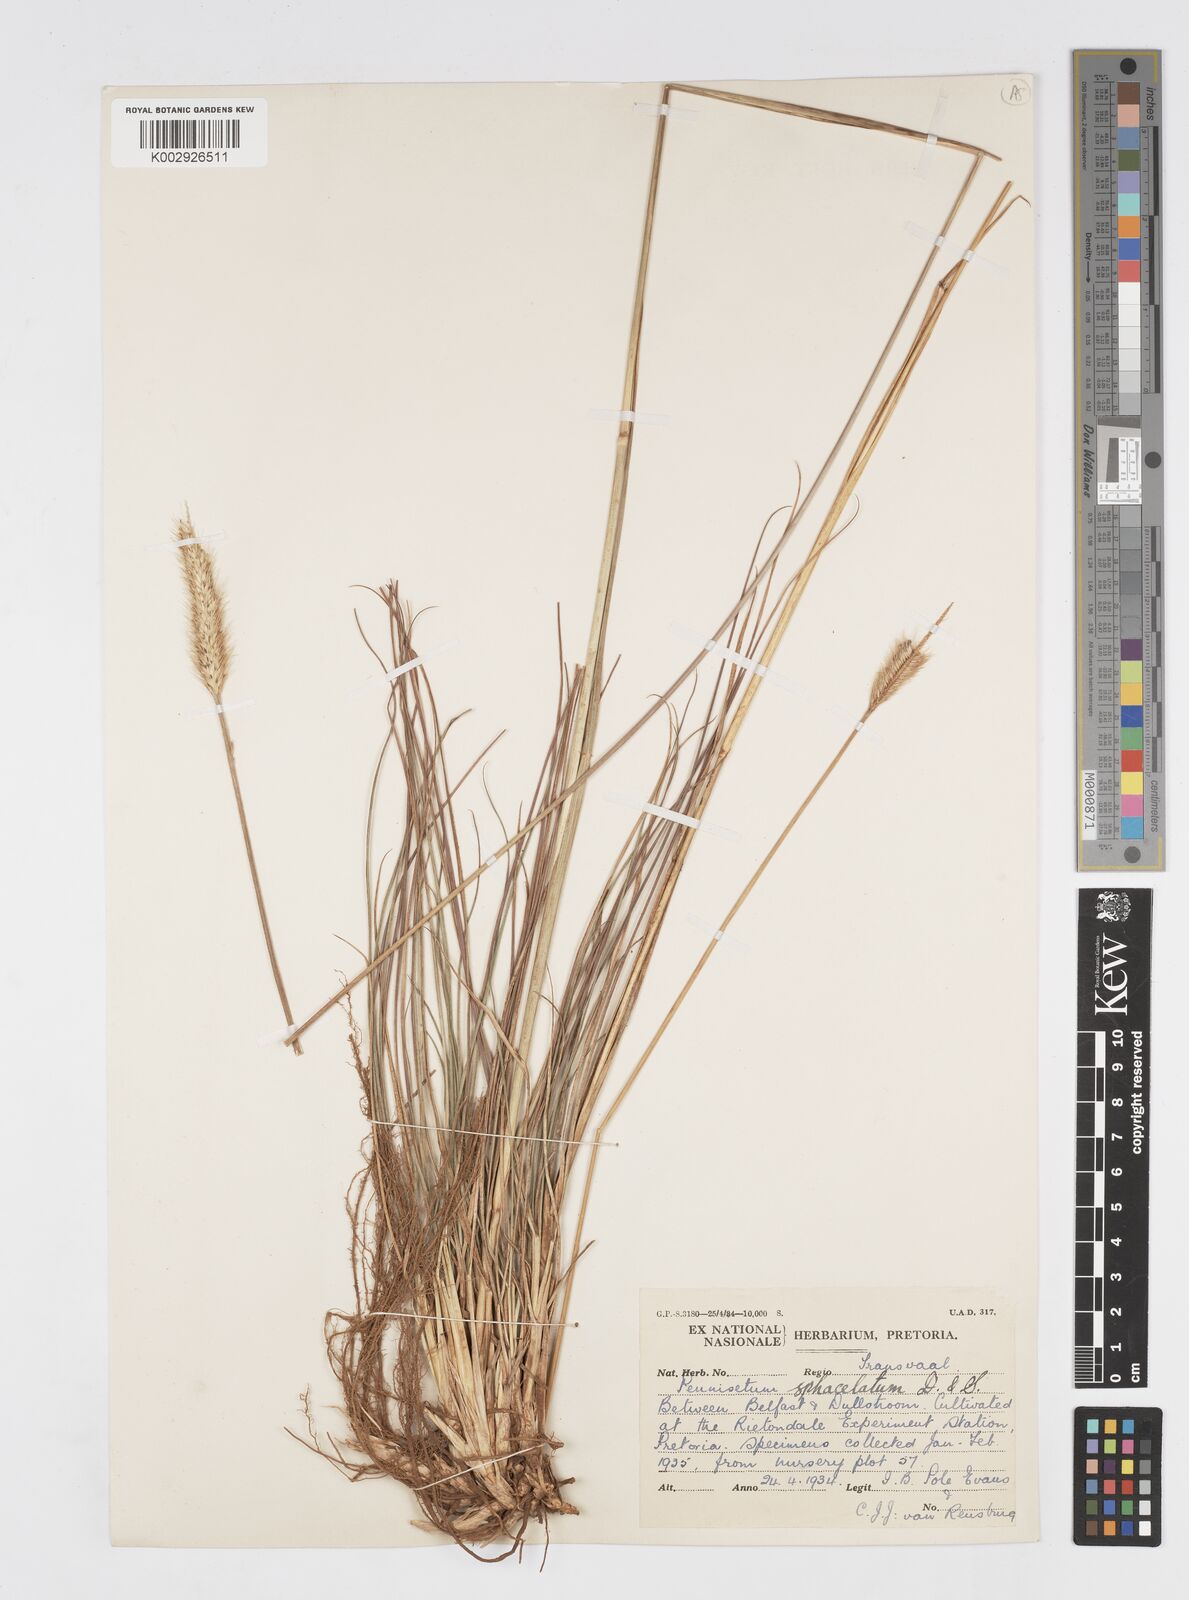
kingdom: Plantae
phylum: Tracheophyta
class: Liliopsida
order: Poales
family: Poaceae
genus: Cenchrus
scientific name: Cenchrus sphacelatus
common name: Bulgras
